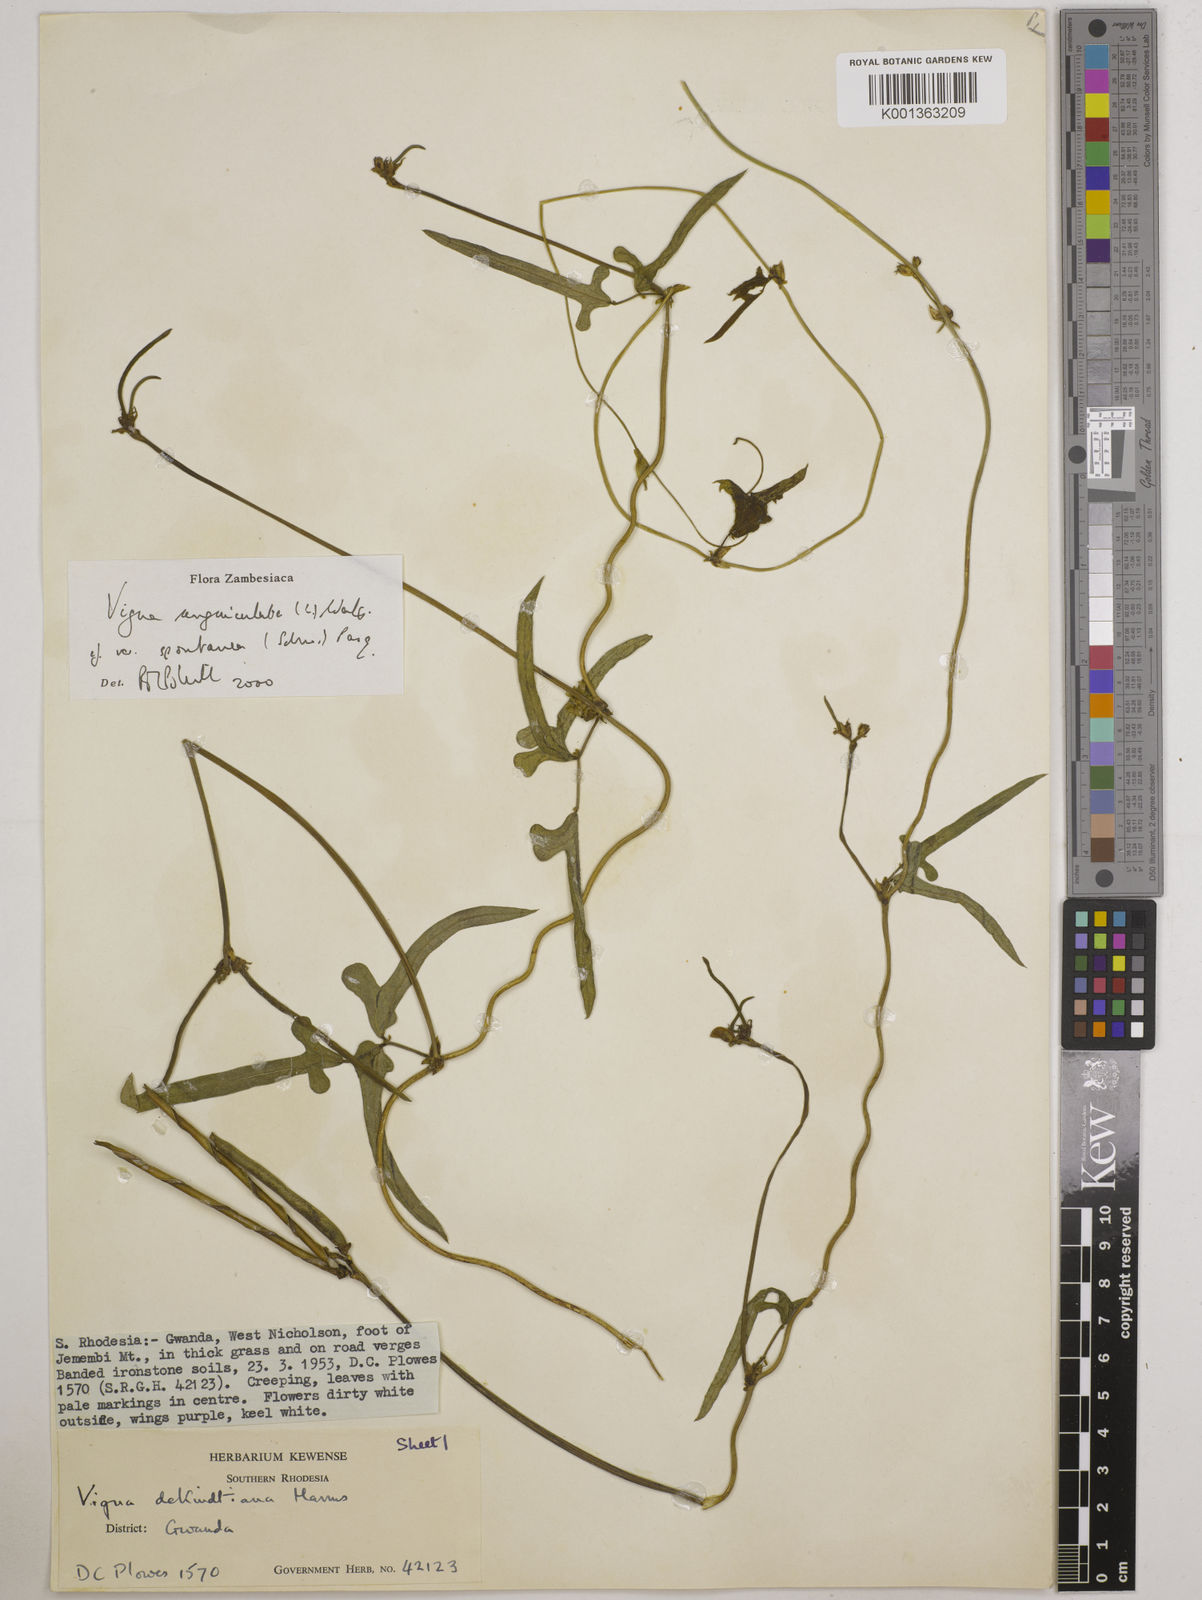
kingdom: Plantae
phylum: Tracheophyta
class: Magnoliopsida
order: Fabales
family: Fabaceae
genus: Vigna
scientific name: Vigna unguiculata
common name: Cowpea
